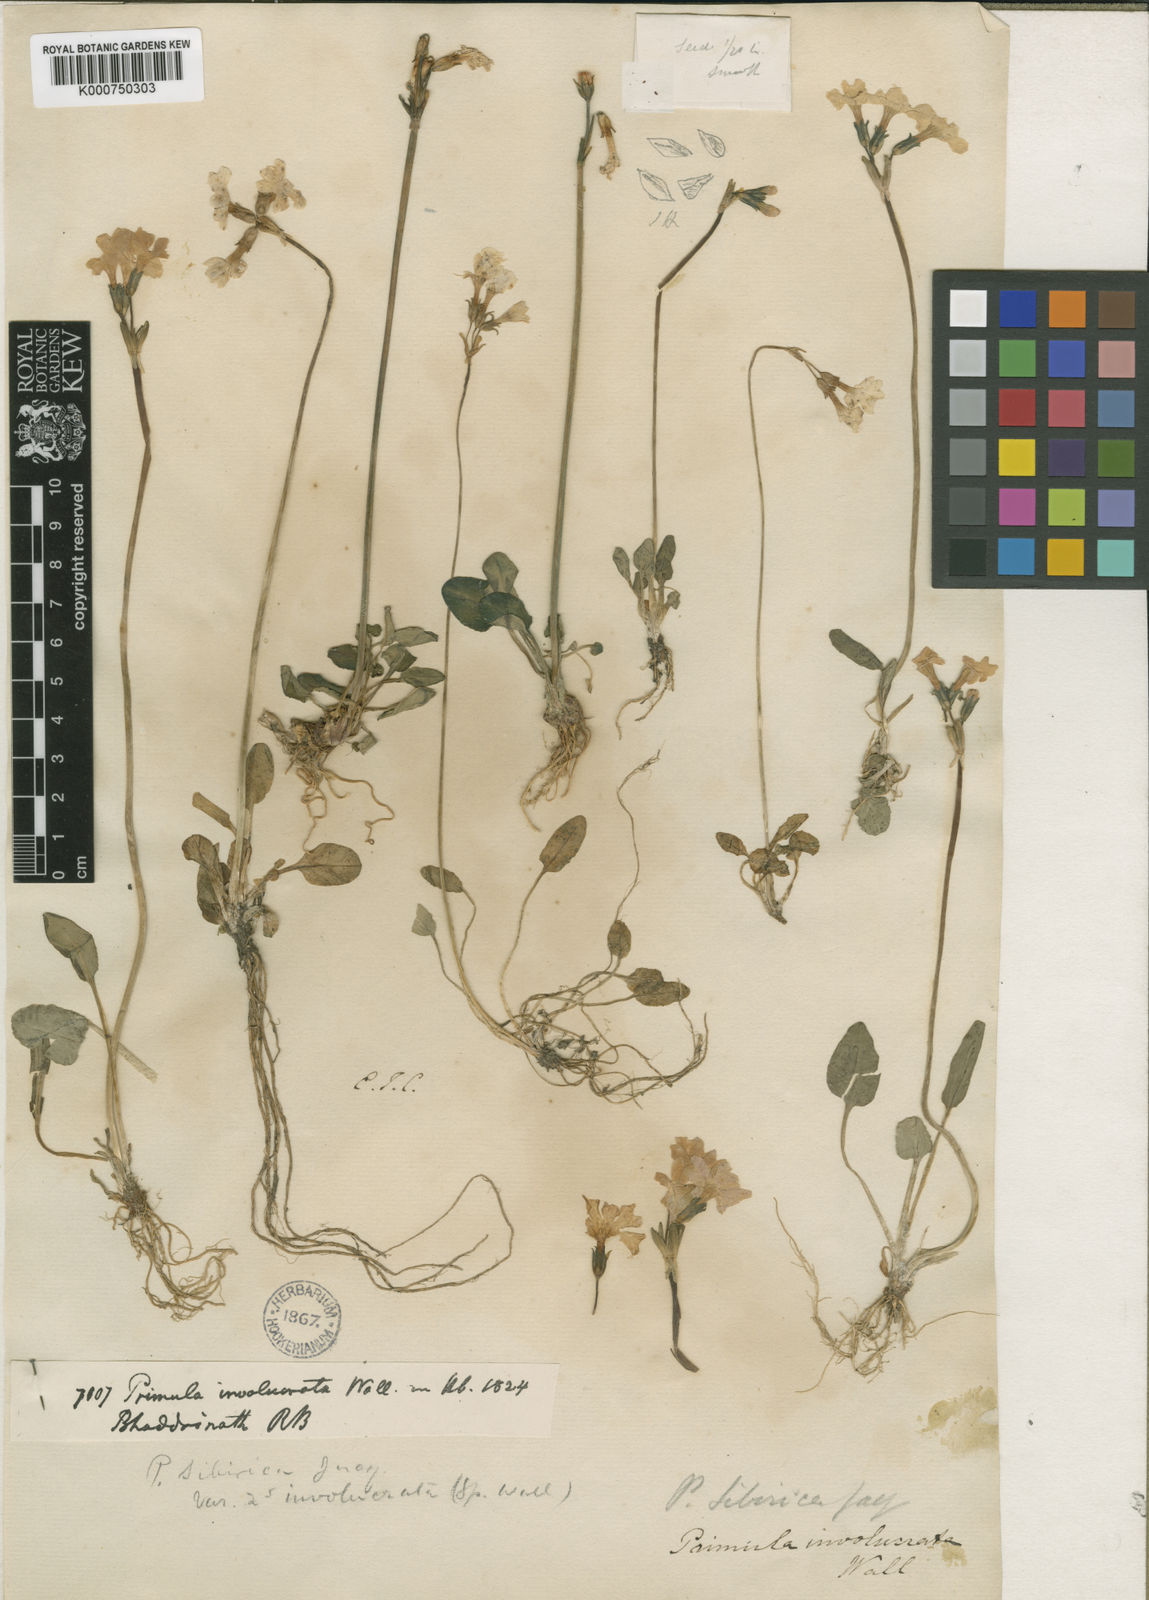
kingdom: Plantae
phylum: Tracheophyta
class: Magnoliopsida
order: Ericales
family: Primulaceae
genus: Primula
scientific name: Primula
